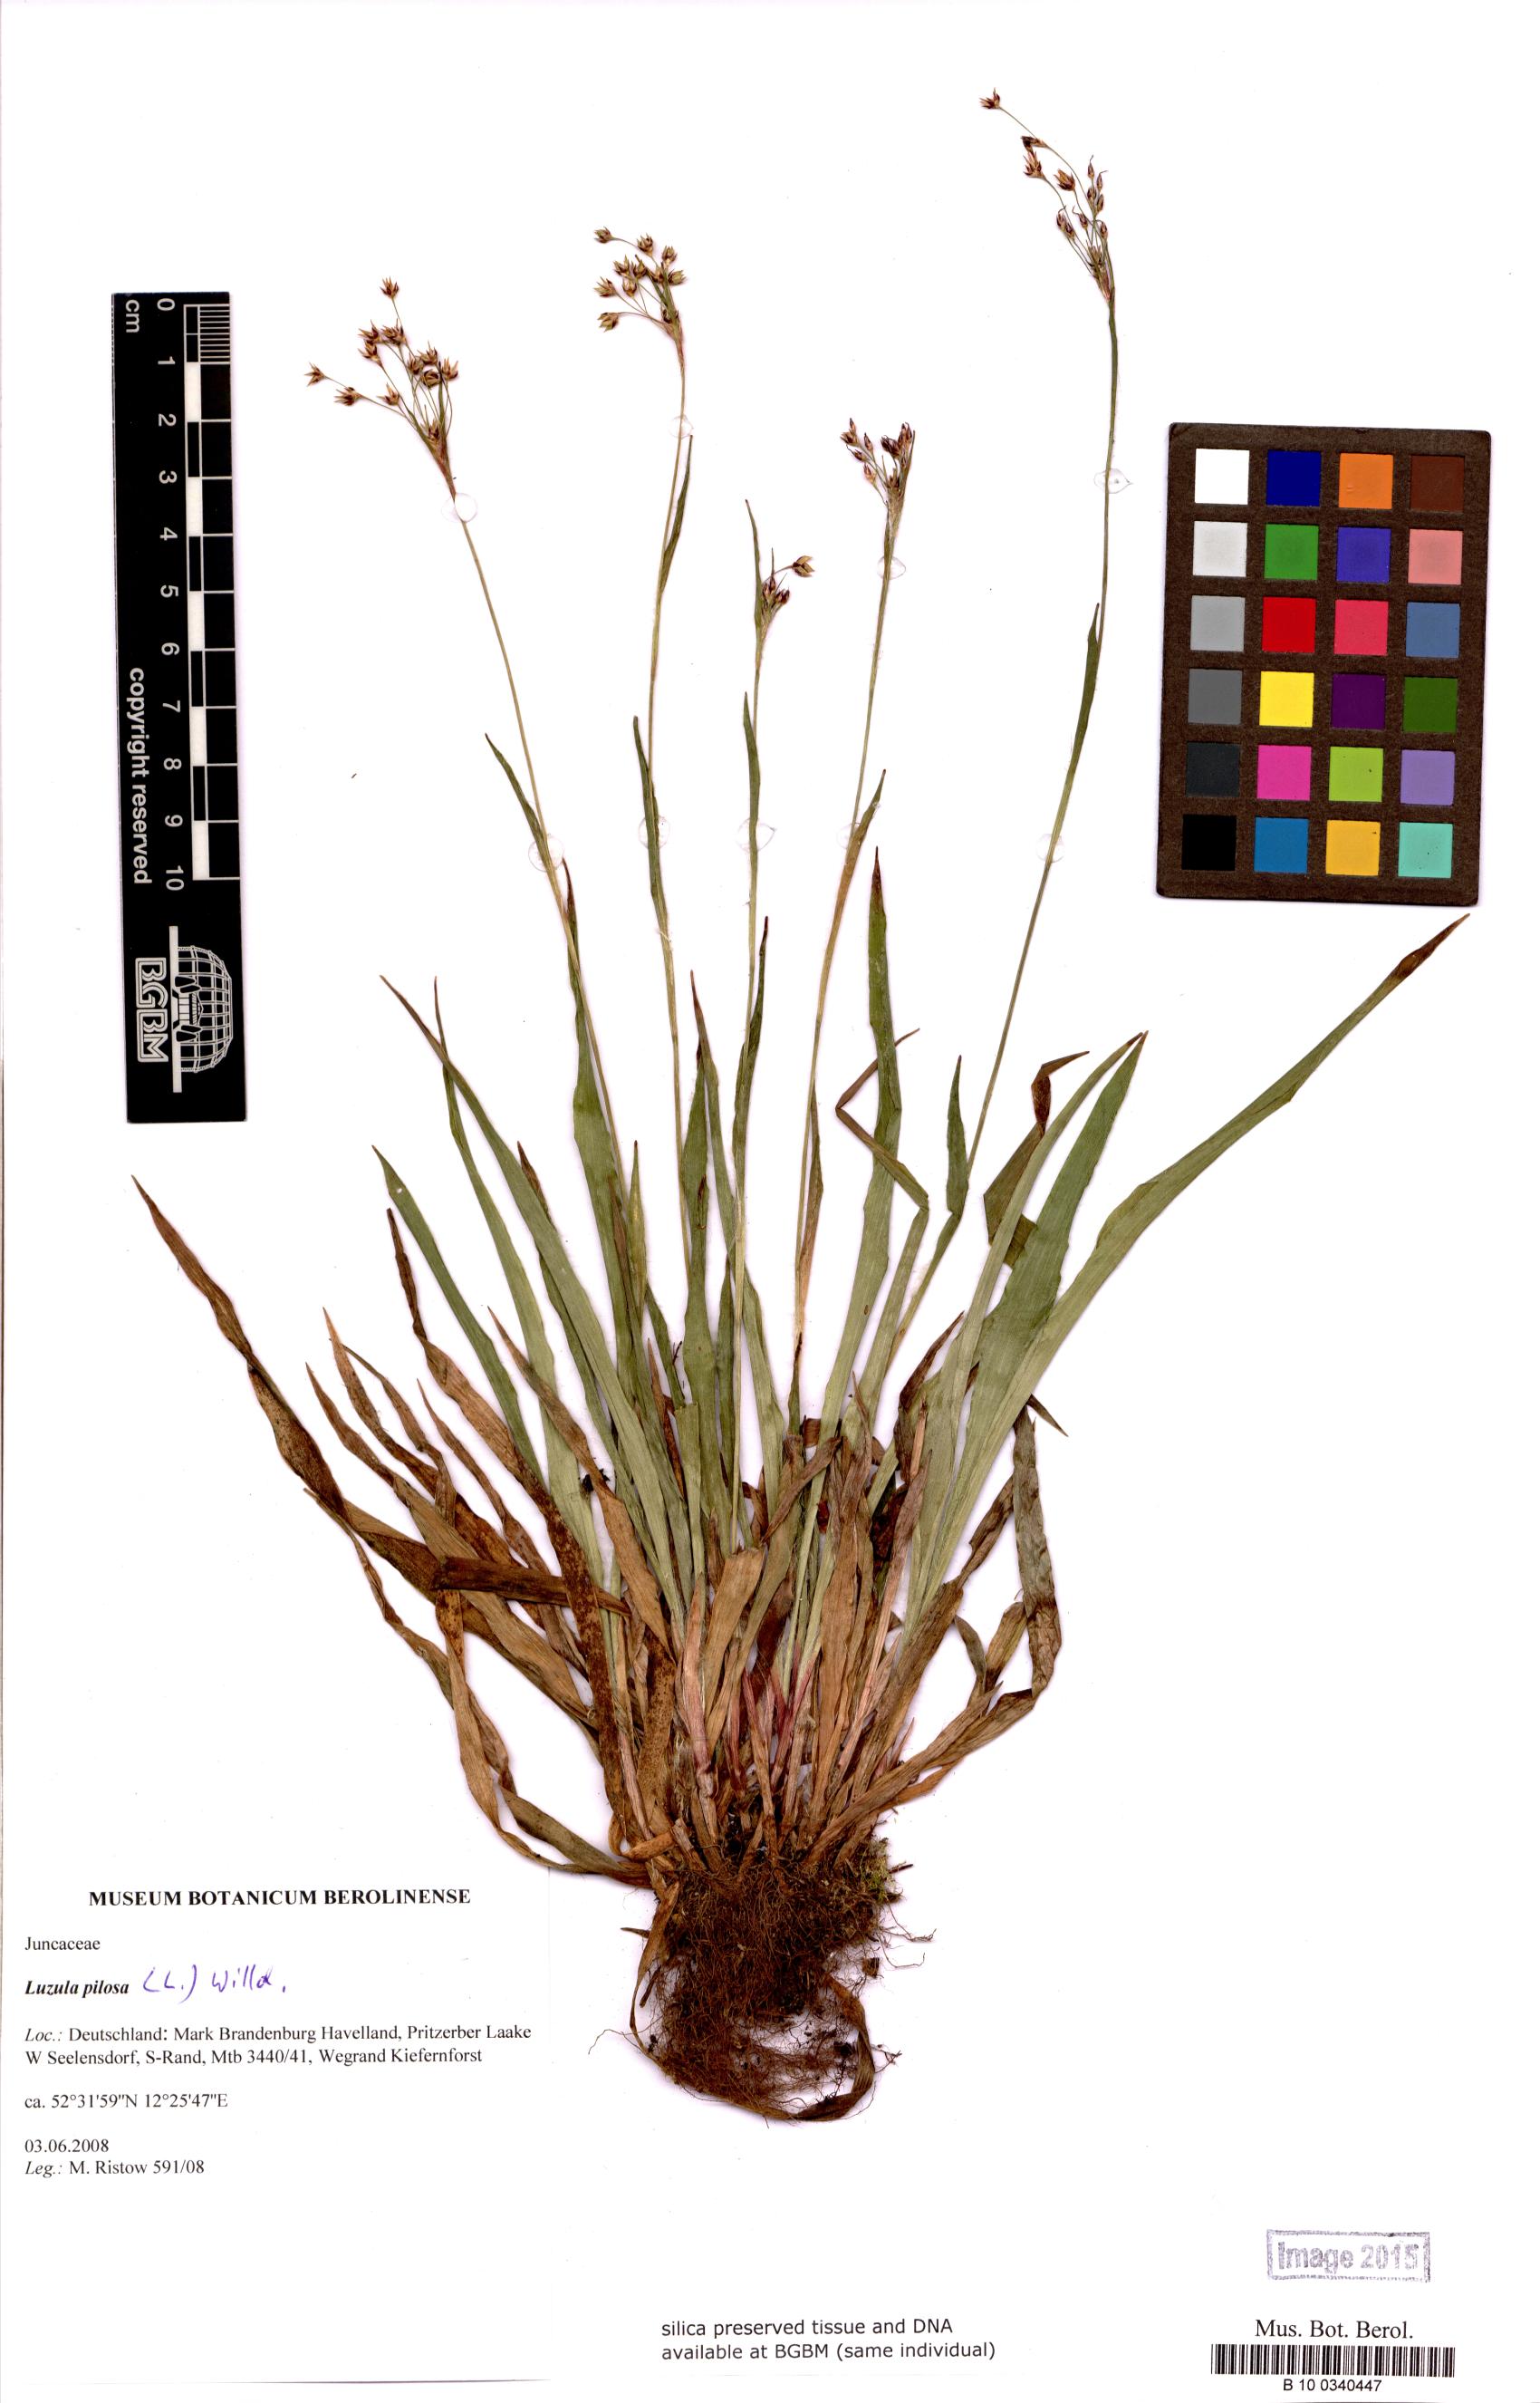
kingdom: Plantae
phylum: Tracheophyta
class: Liliopsida
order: Poales
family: Juncaceae
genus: Luzula
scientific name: Luzula pilosa
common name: Hairy wood-rush
